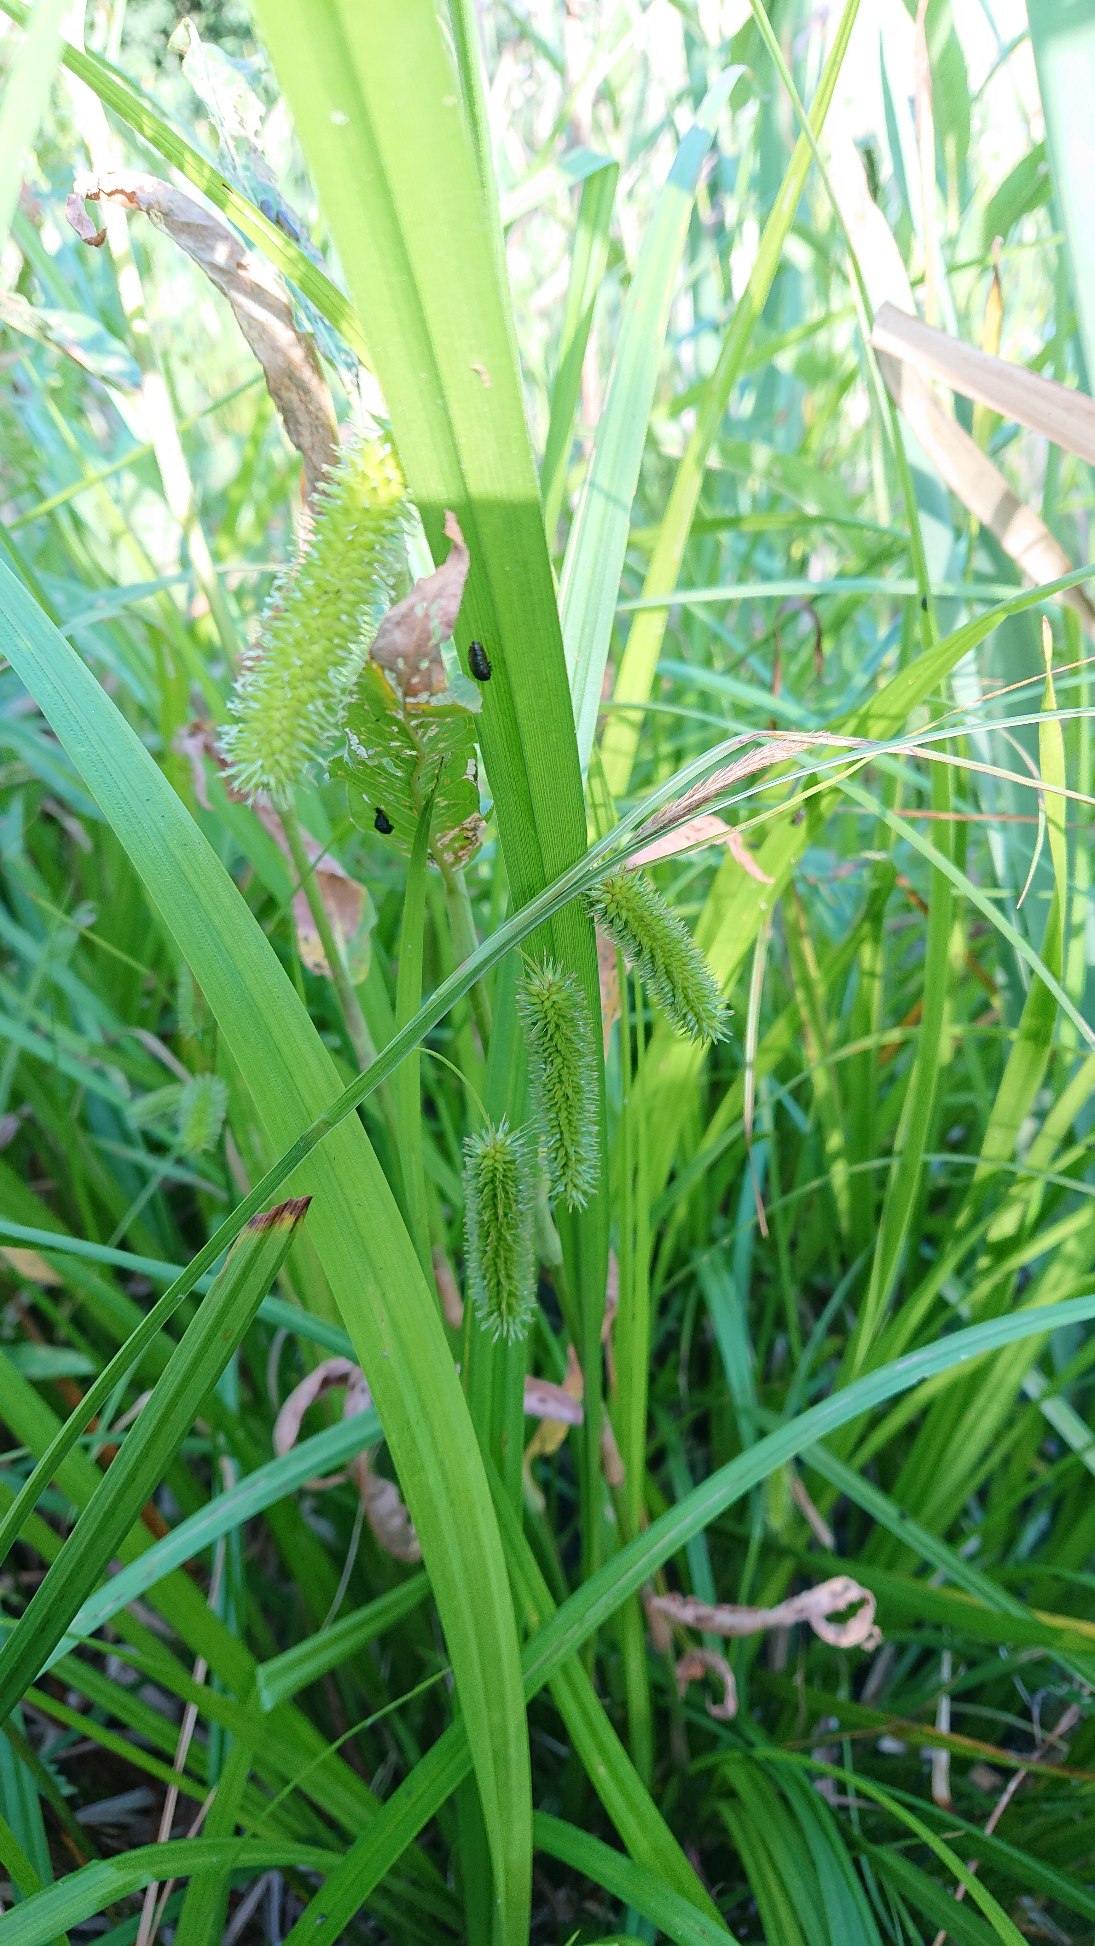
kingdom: Plantae
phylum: Tracheophyta
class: Liliopsida
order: Poales
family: Cyperaceae
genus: Carex
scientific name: Carex pseudocyperus
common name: Knippe-star
